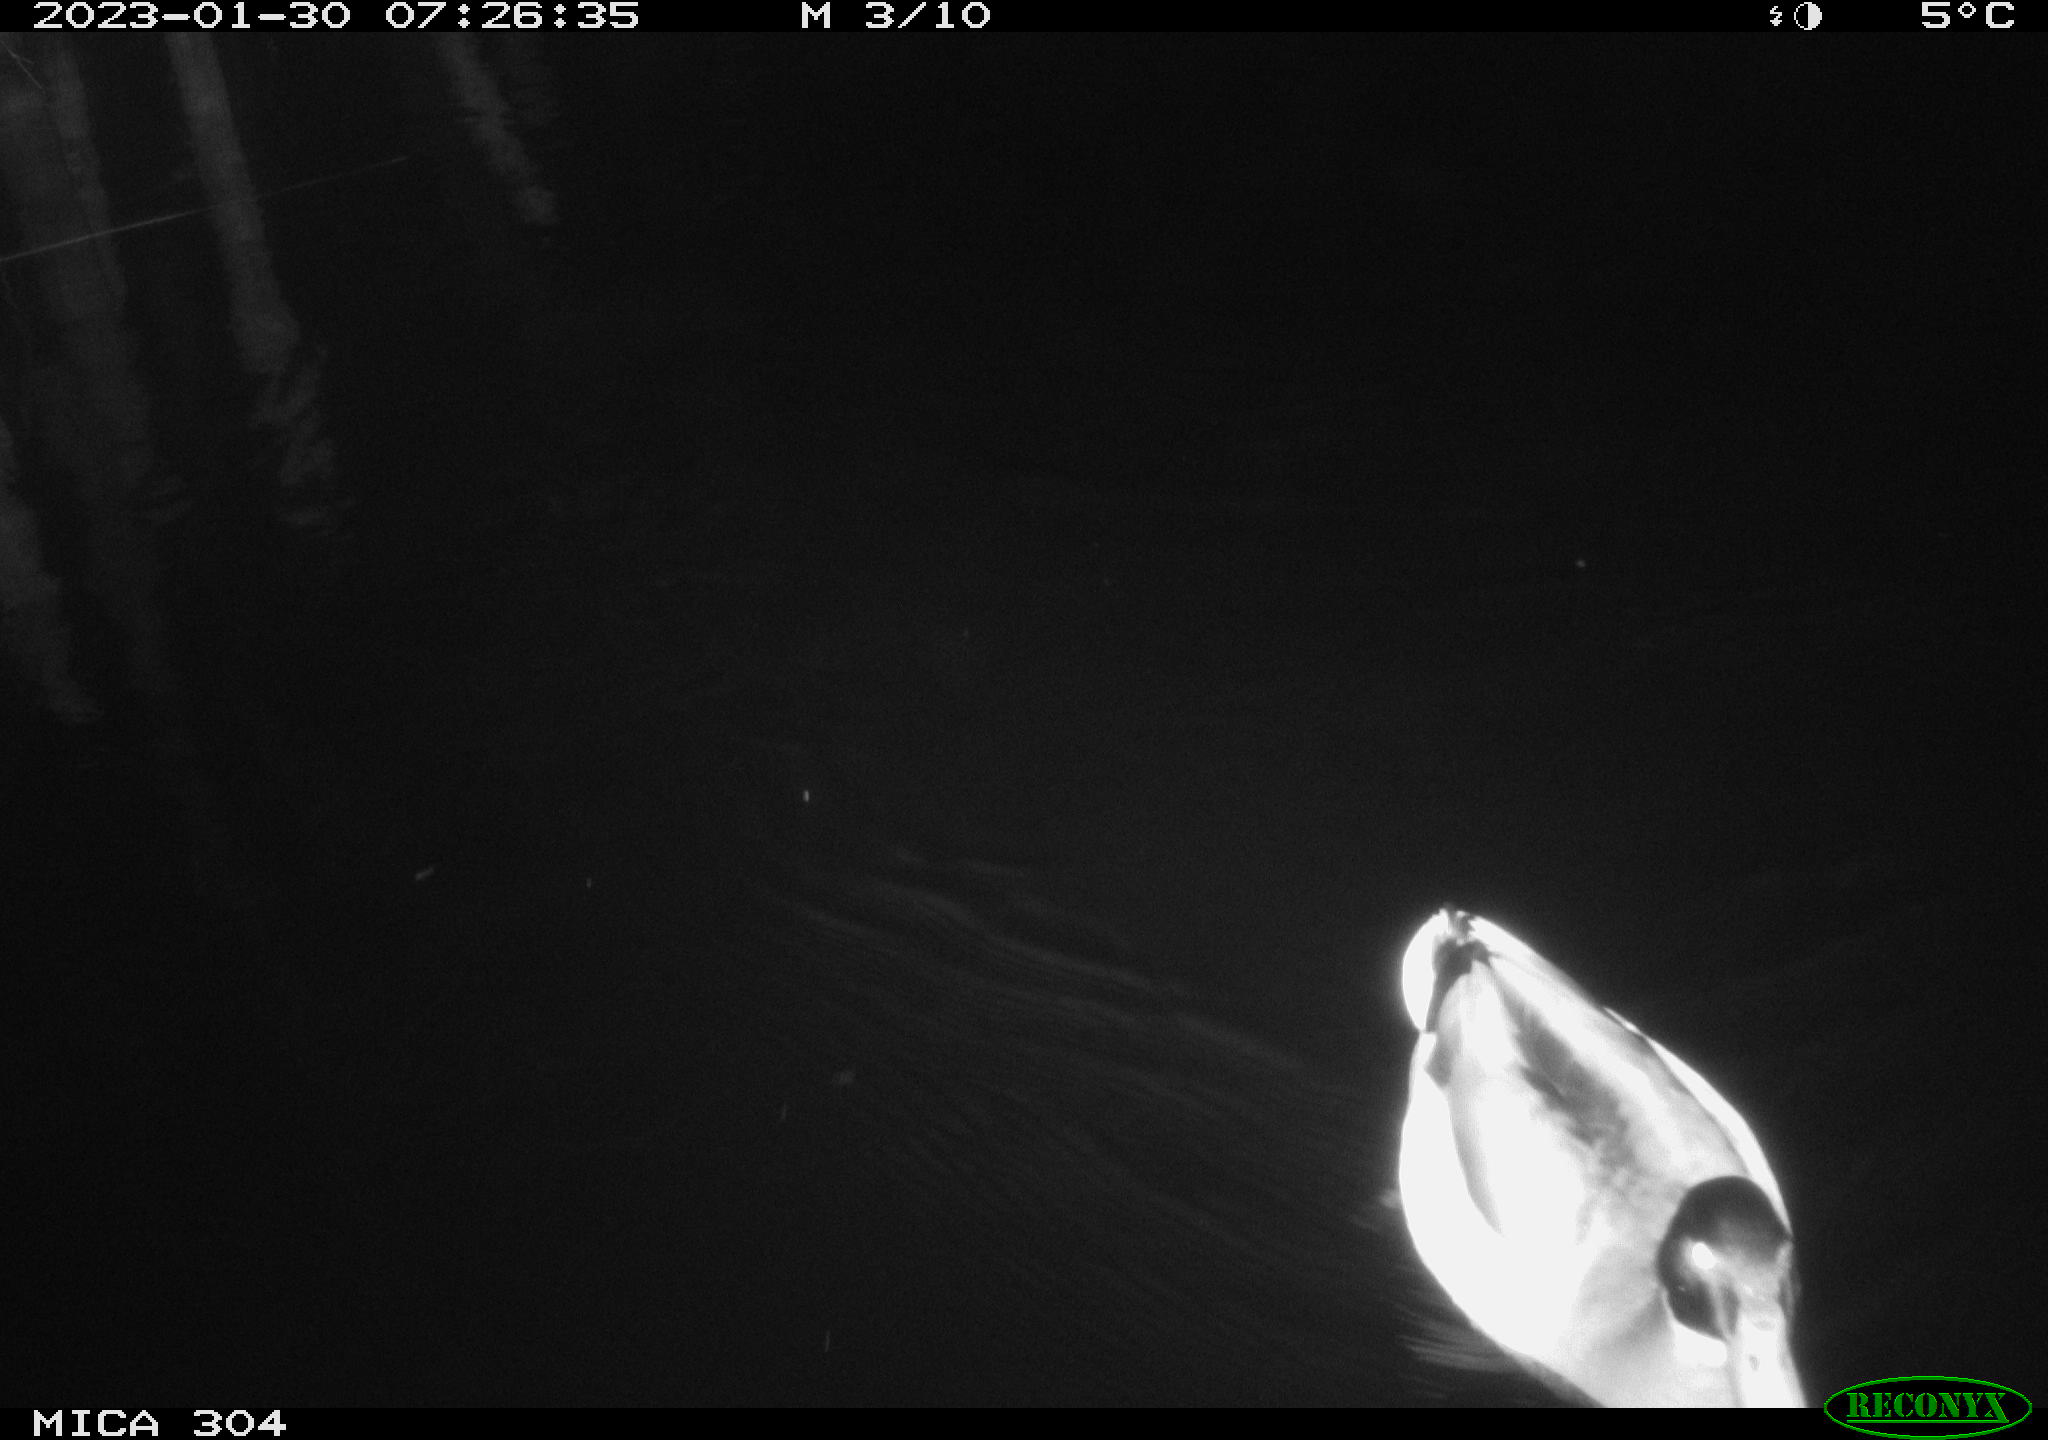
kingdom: Animalia
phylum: Chordata
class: Aves
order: Anseriformes
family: Anatidae
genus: Anas
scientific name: Anas
